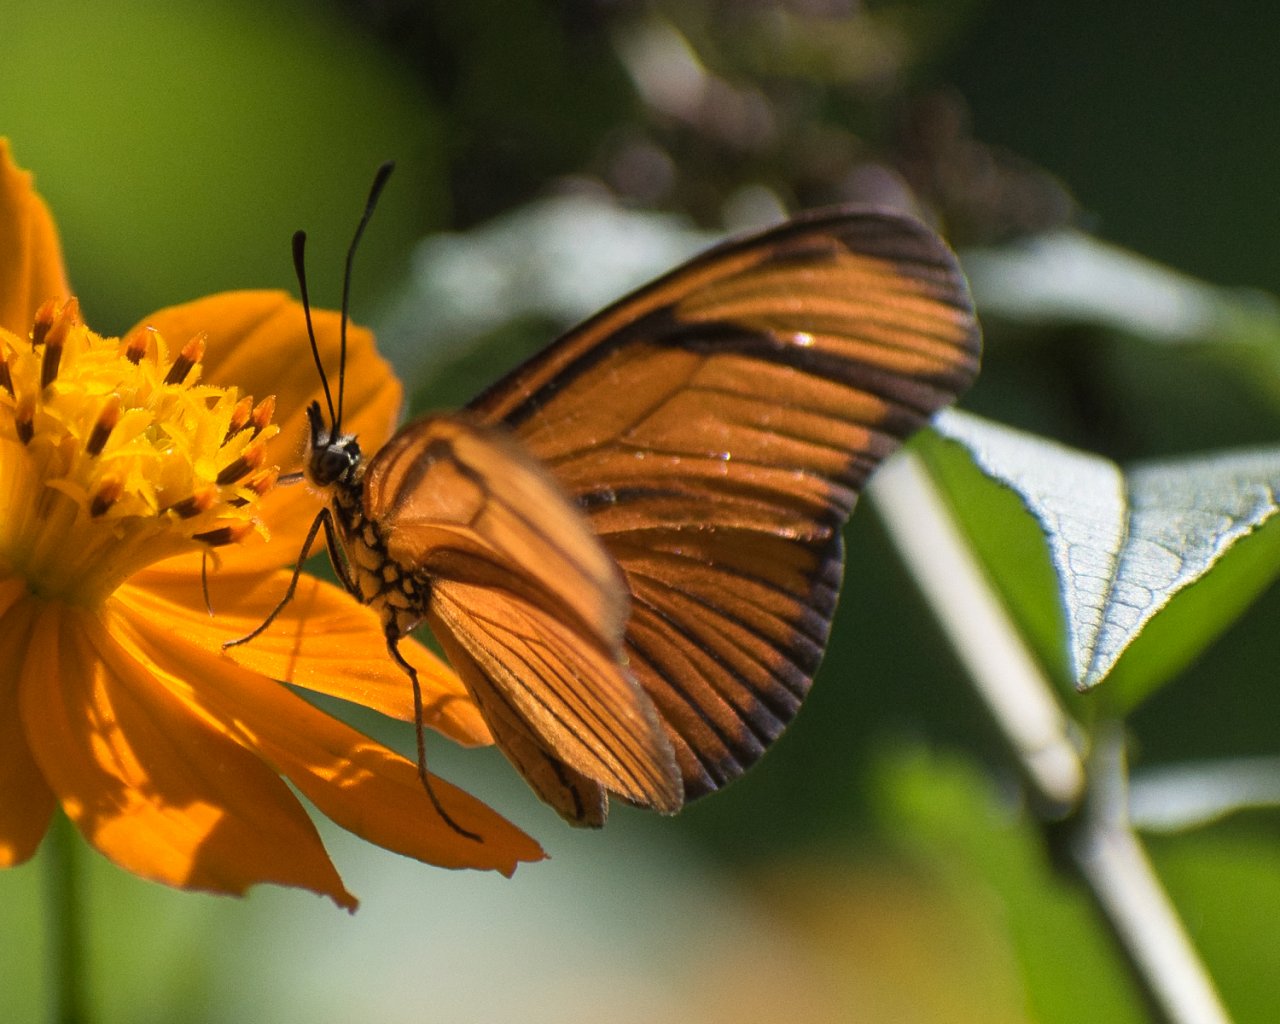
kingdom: Animalia
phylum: Arthropoda
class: Insecta
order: Lepidoptera
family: Nymphalidae
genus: Heliconius
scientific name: Heliconius aliphera
